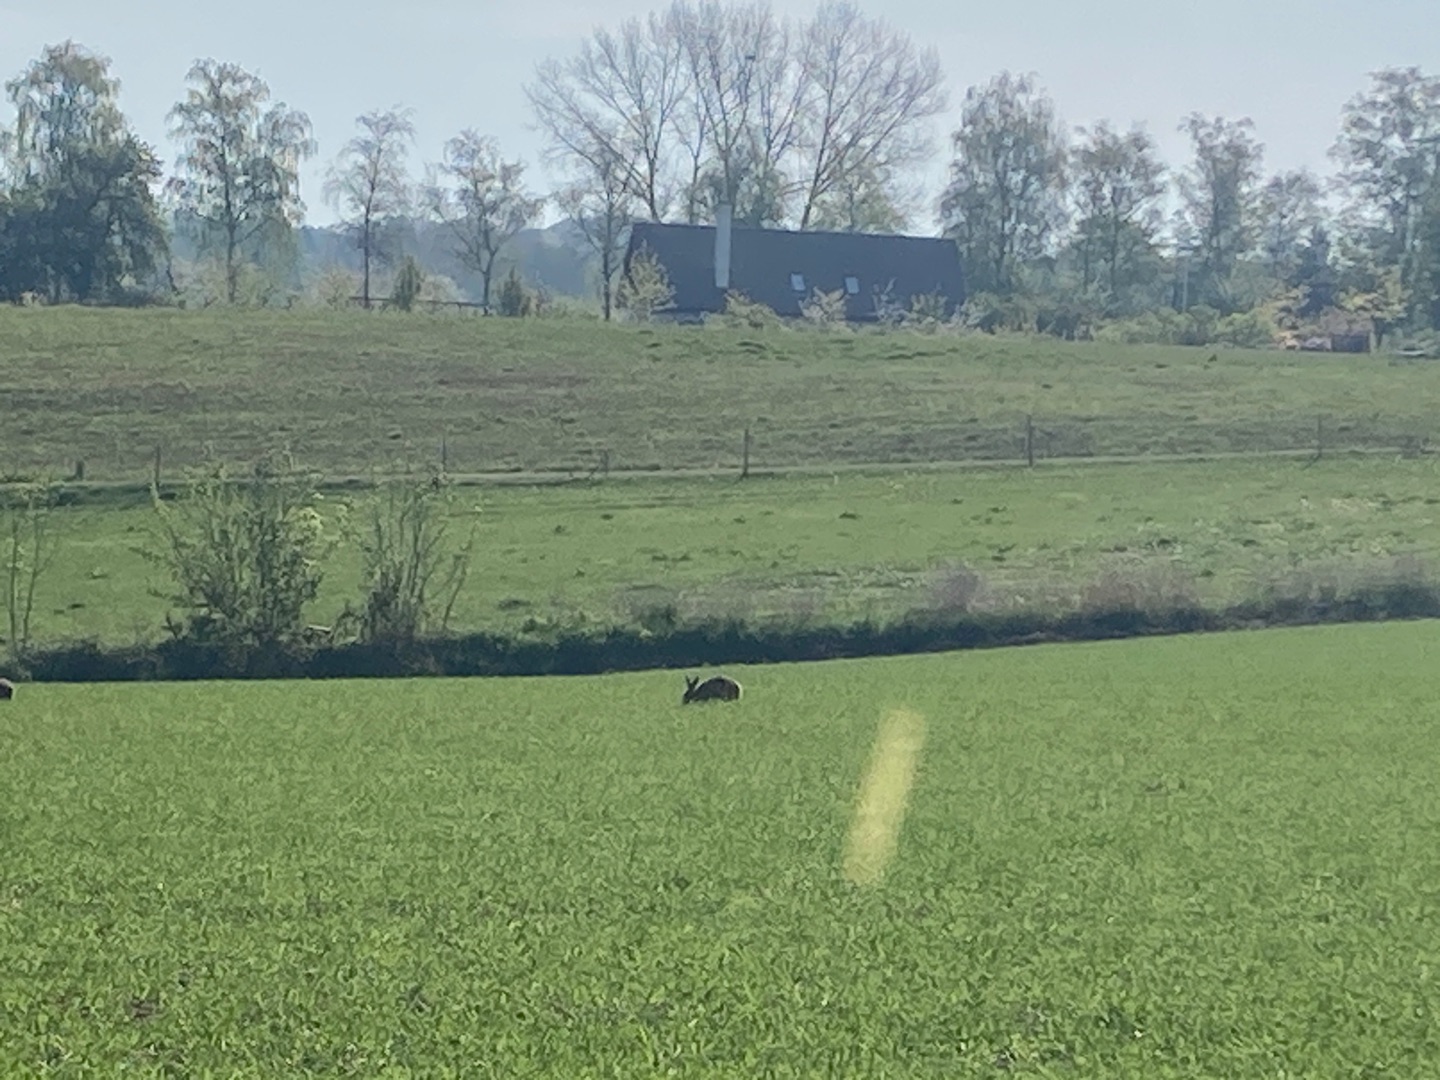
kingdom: Animalia
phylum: Chordata
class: Mammalia
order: Lagomorpha
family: Leporidae
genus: Lepus
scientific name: Lepus europaeus
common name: Hare
